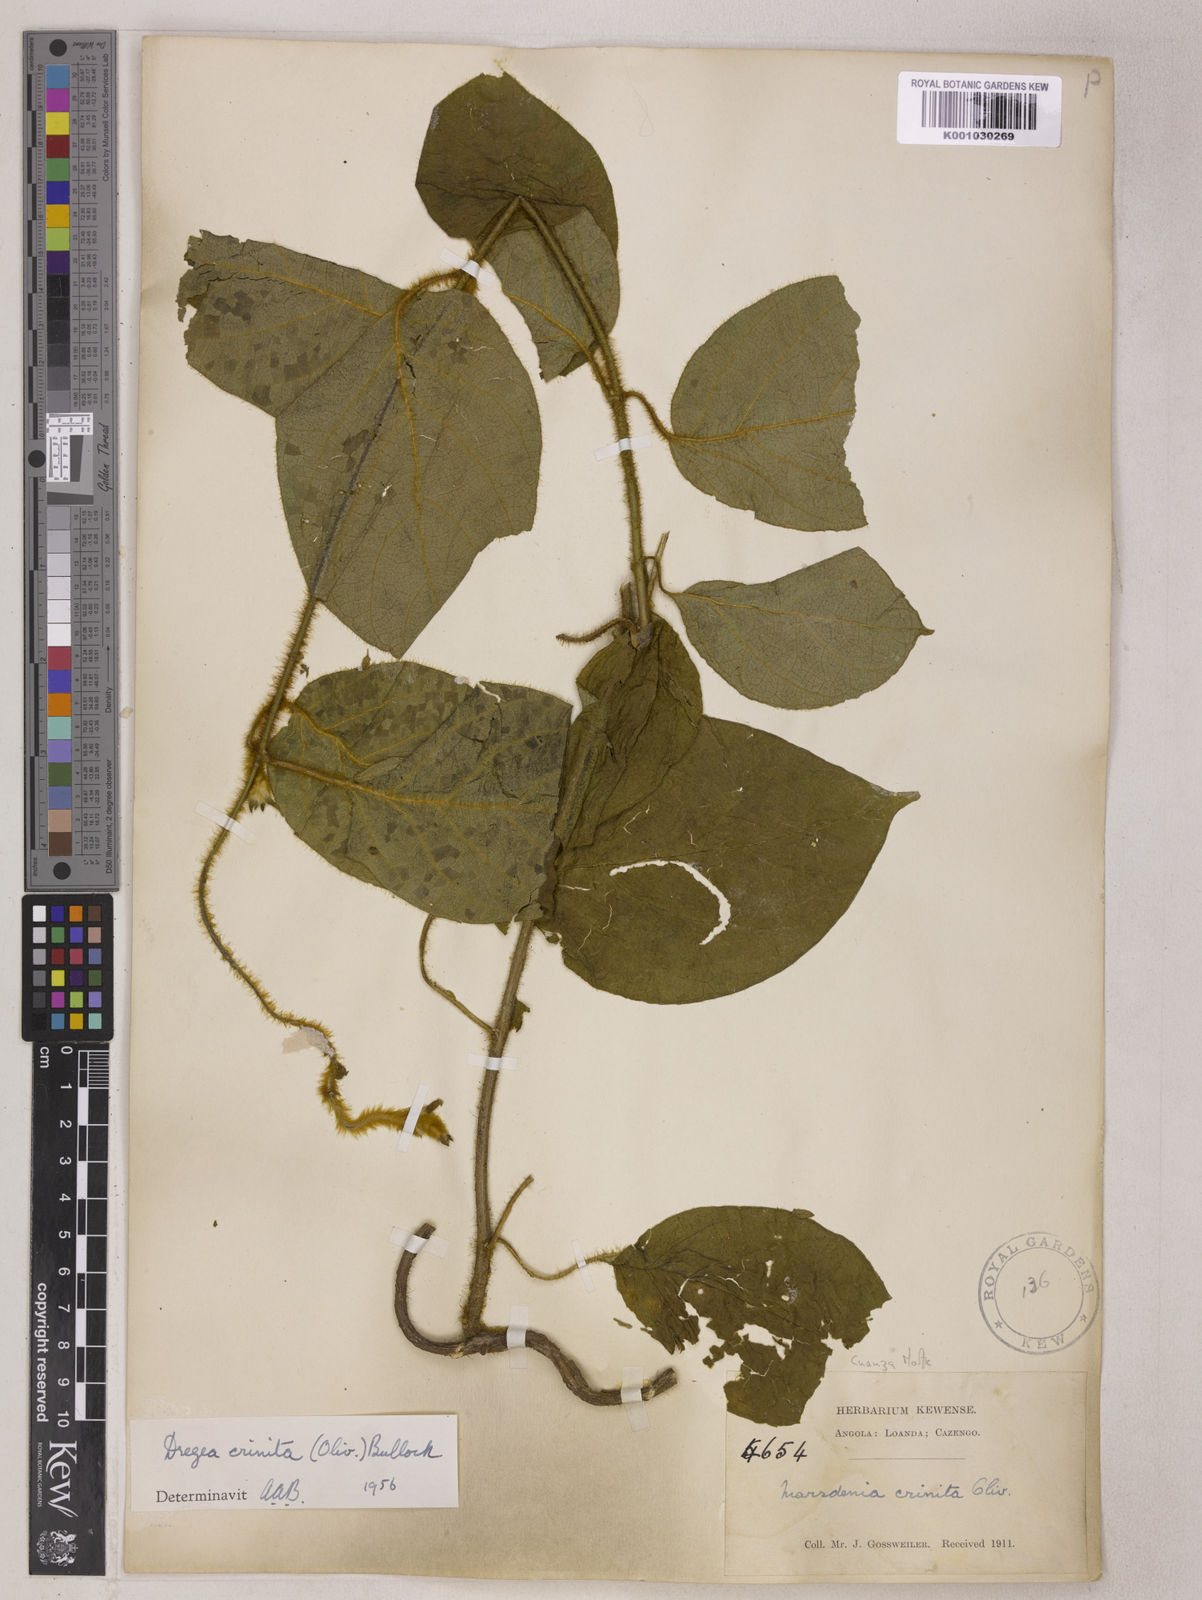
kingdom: Plantae
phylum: Tracheophyta
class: Magnoliopsida
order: Gentianales
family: Apocynaceae
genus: Stephanotis
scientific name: Stephanotis crinita
